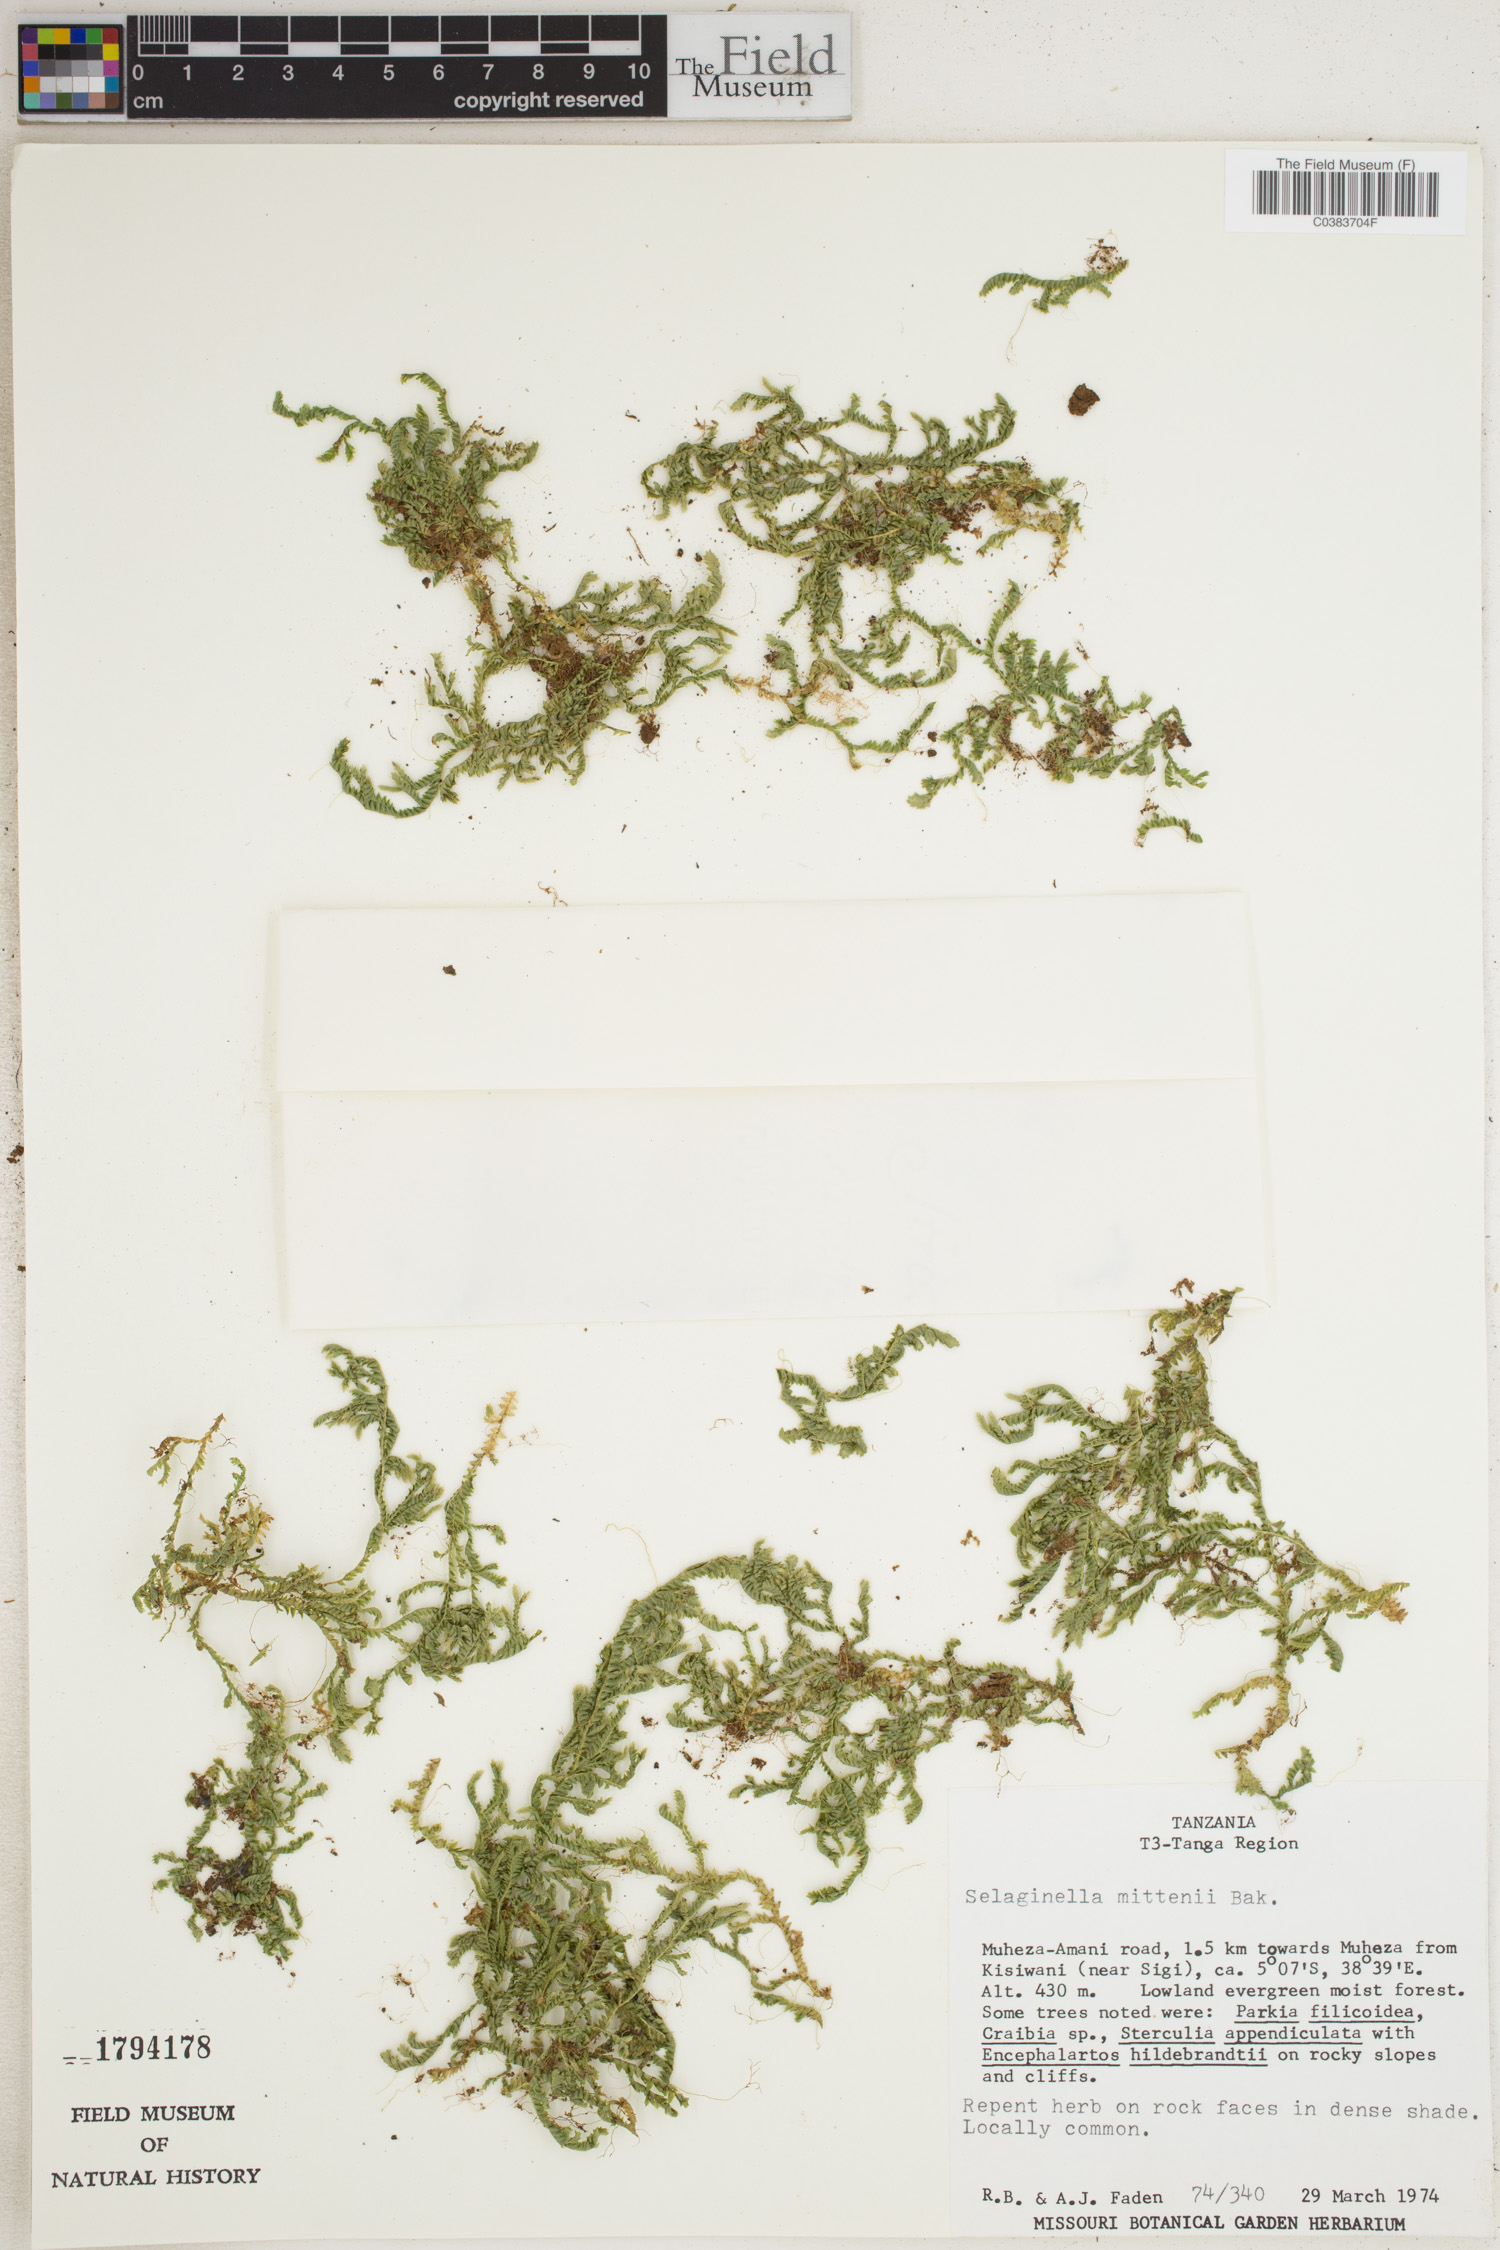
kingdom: Plantae
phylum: Tracheophyta
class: Lycopodiopsida
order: Selaginellales
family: Selaginellaceae
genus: Selaginella
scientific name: Selaginella mittenii
